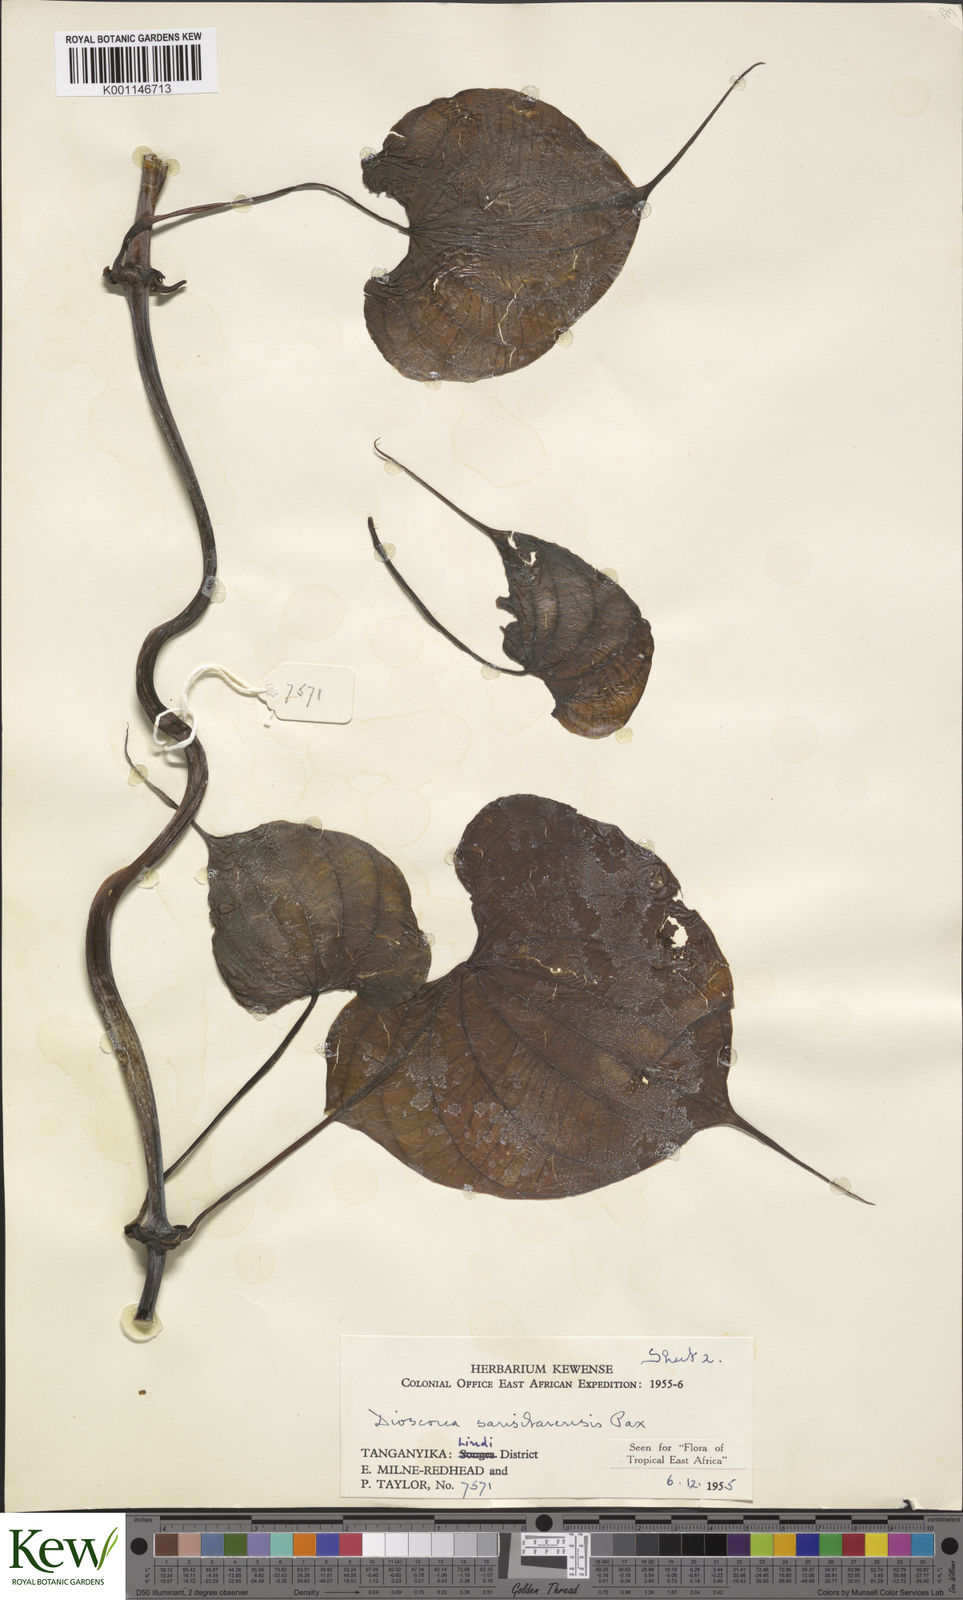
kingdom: Plantae
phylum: Tracheophyta
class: Liliopsida
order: Dioscoreales
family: Dioscoreaceae
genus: Dioscorea
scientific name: Dioscorea sansibarensis
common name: Zanzibar yam
